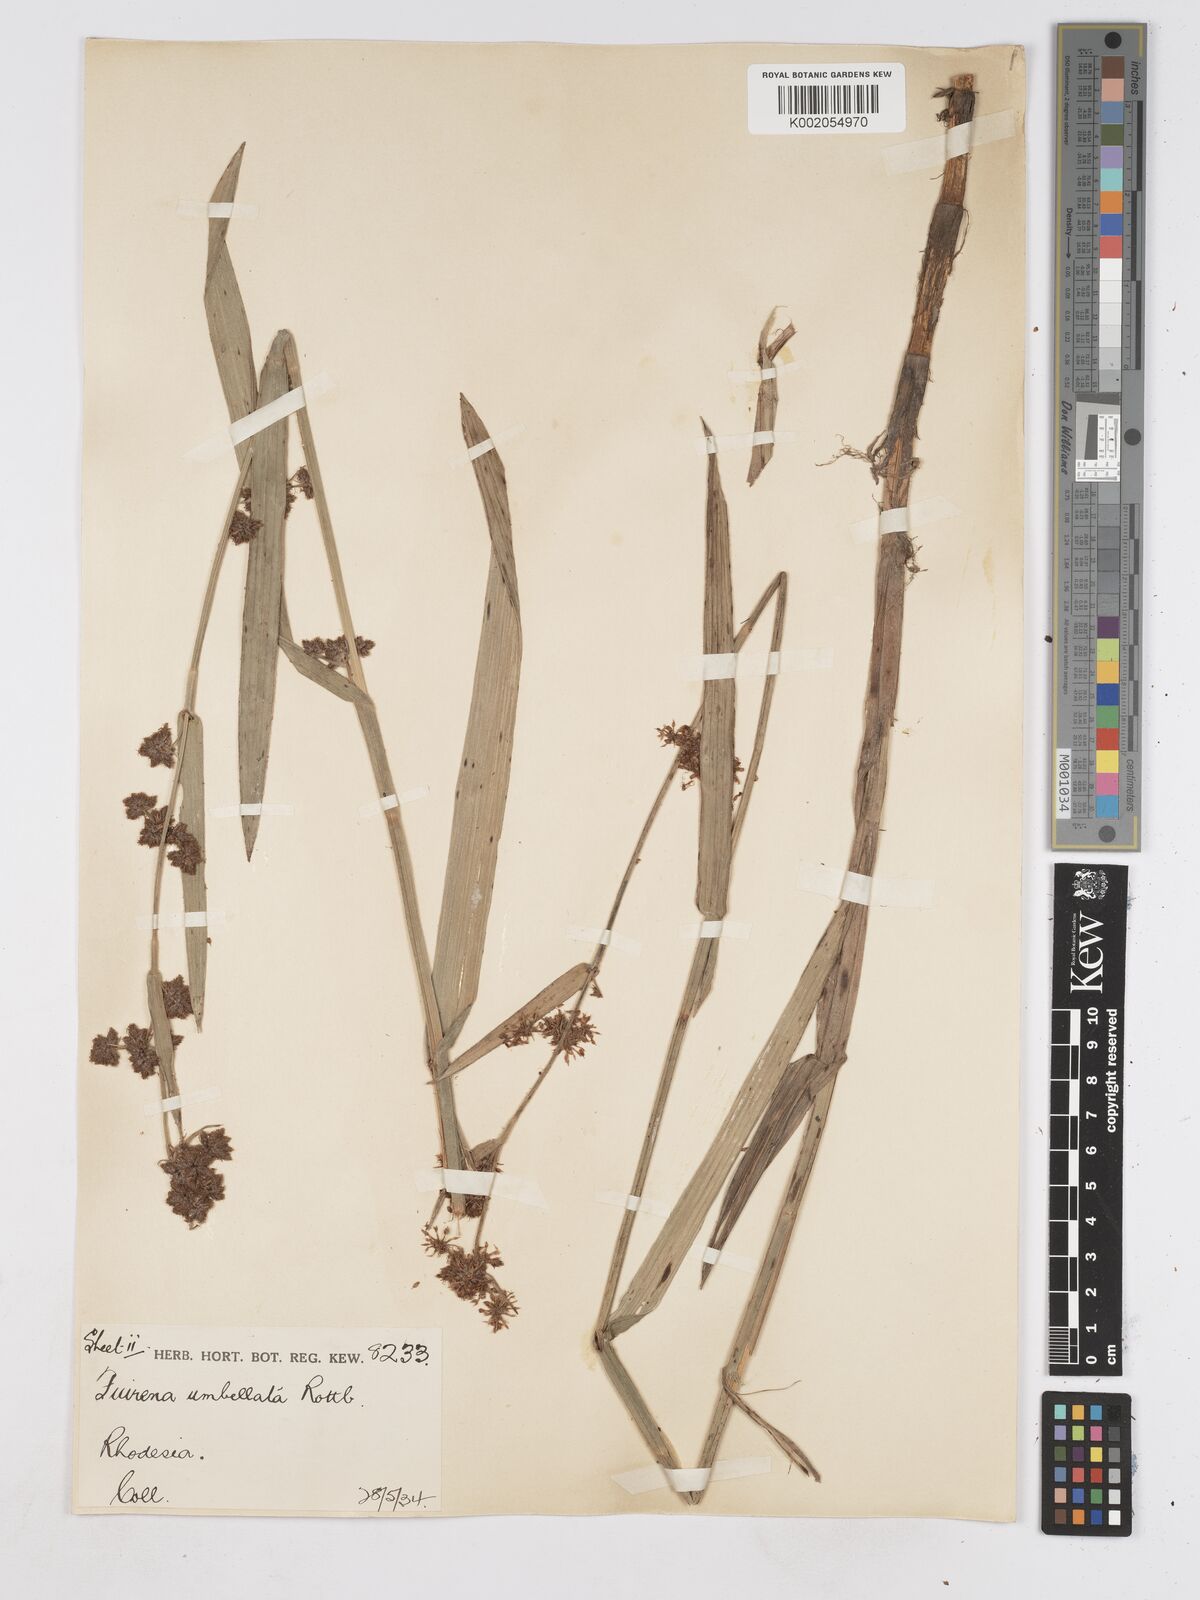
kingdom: Plantae
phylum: Tracheophyta
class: Liliopsida
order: Poales
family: Cyperaceae
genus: Fuirena
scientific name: Fuirena umbellata
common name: Yefen
